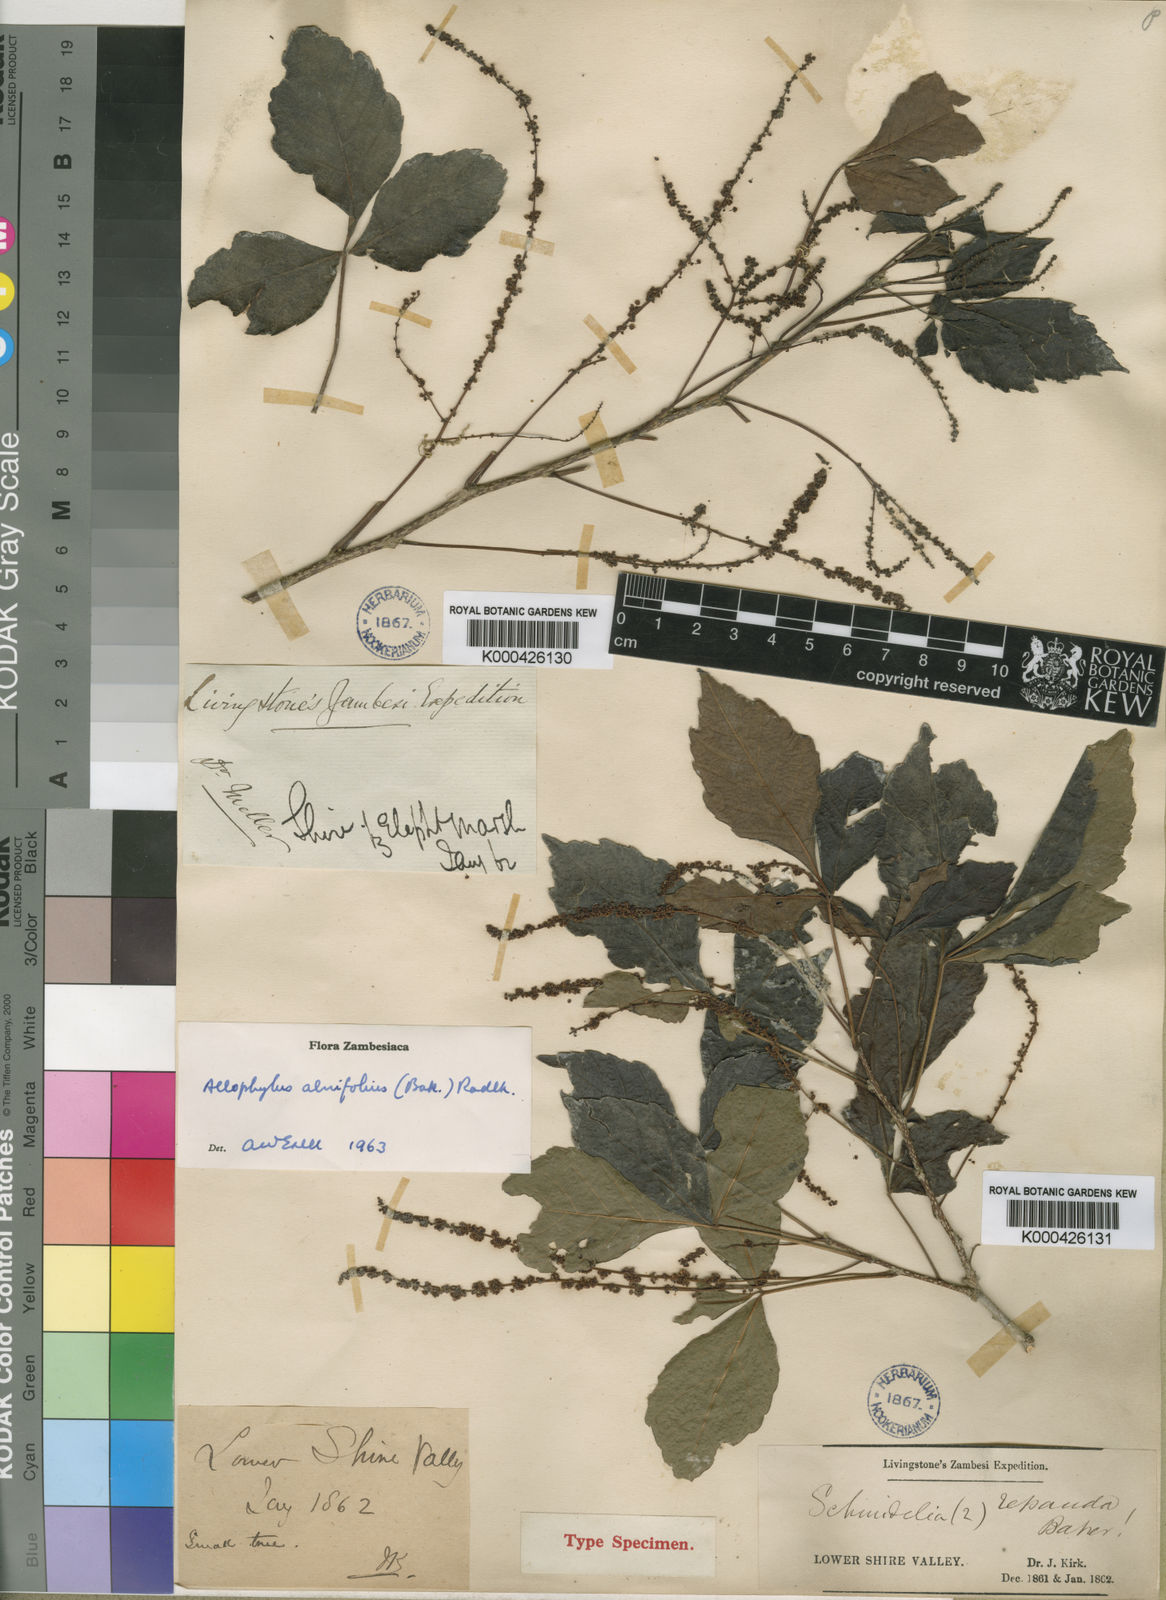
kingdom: Plantae
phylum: Tracheophyta
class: Magnoliopsida
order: Sapindales
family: Sapindaceae
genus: Allophylus
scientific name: Allophylus
